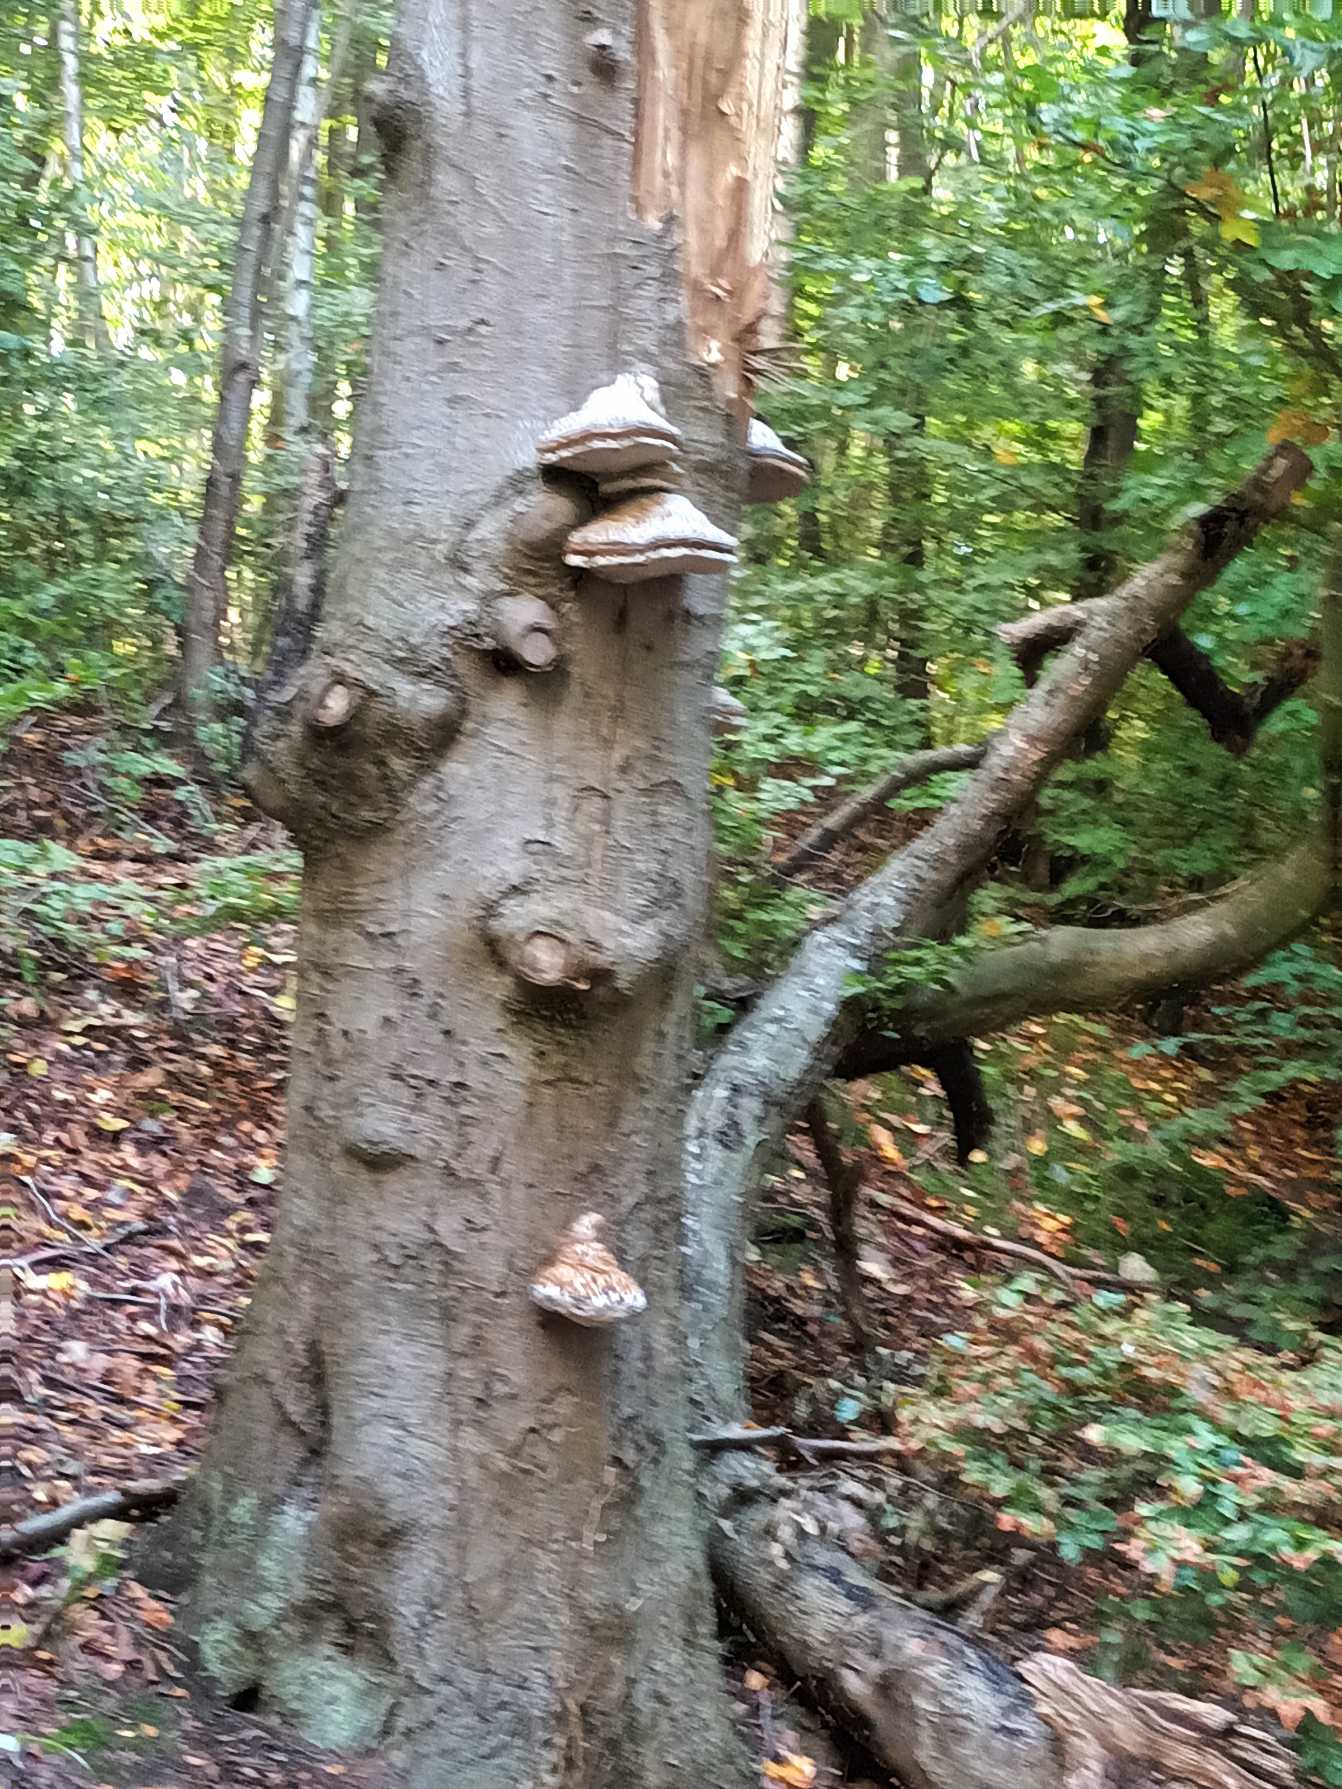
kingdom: Fungi
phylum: Basidiomycota
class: Agaricomycetes
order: Polyporales
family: Polyporaceae
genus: Fomes
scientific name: Fomes fomentarius
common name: Tøndersvamp
